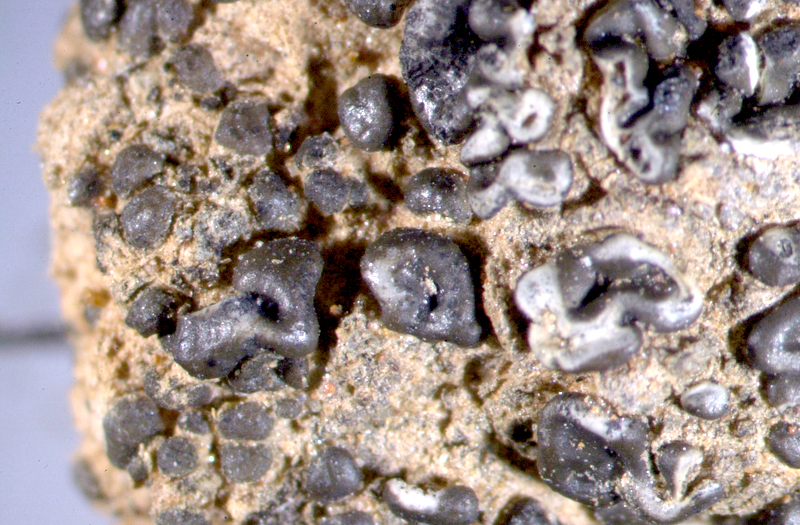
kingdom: Fungi
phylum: Ascomycota
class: Lecanoromycetes
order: Lecanorales
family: Ramalinaceae
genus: Bibbya
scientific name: Bibbya ruginosa
